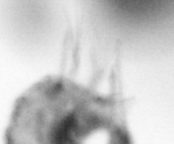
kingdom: Animalia
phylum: Arthropoda
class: Copepoda
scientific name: Copepoda
